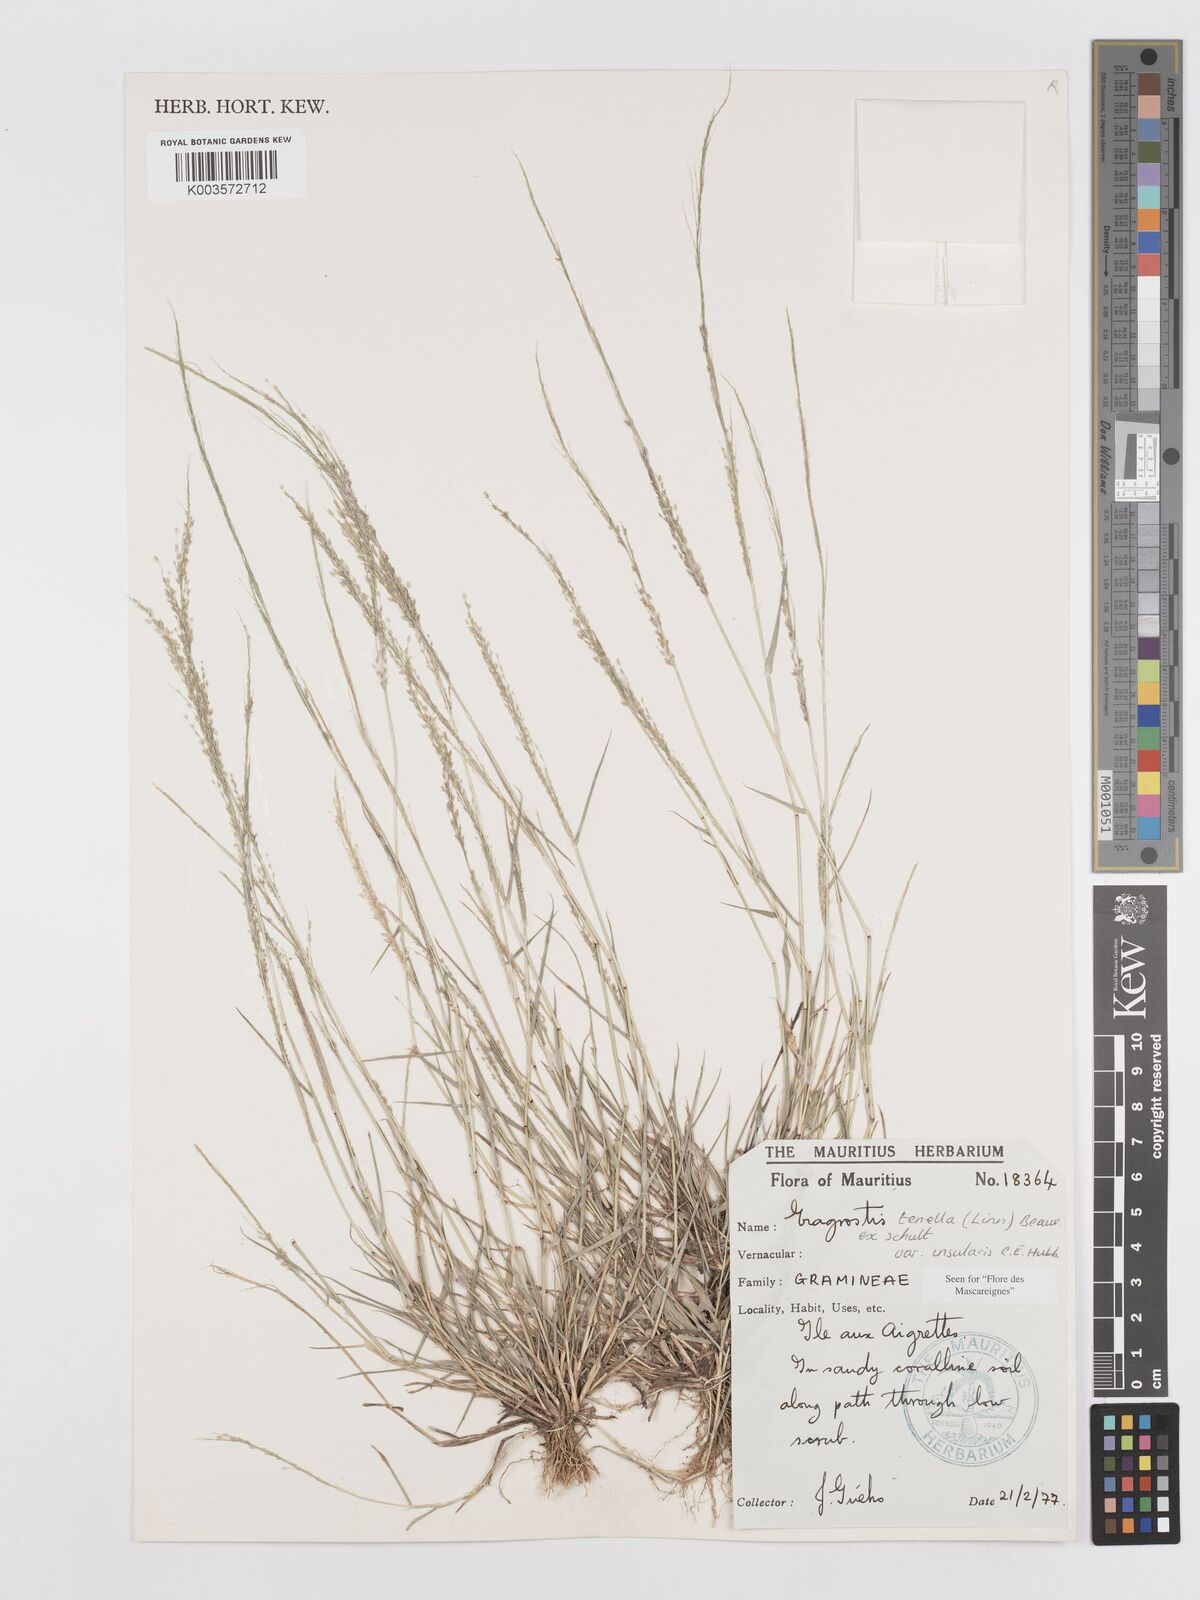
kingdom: Plantae
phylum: Tracheophyta
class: Liliopsida
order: Poales
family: Poaceae
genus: Eragrostis
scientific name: Eragrostis tenella
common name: Japanese lovegrass
